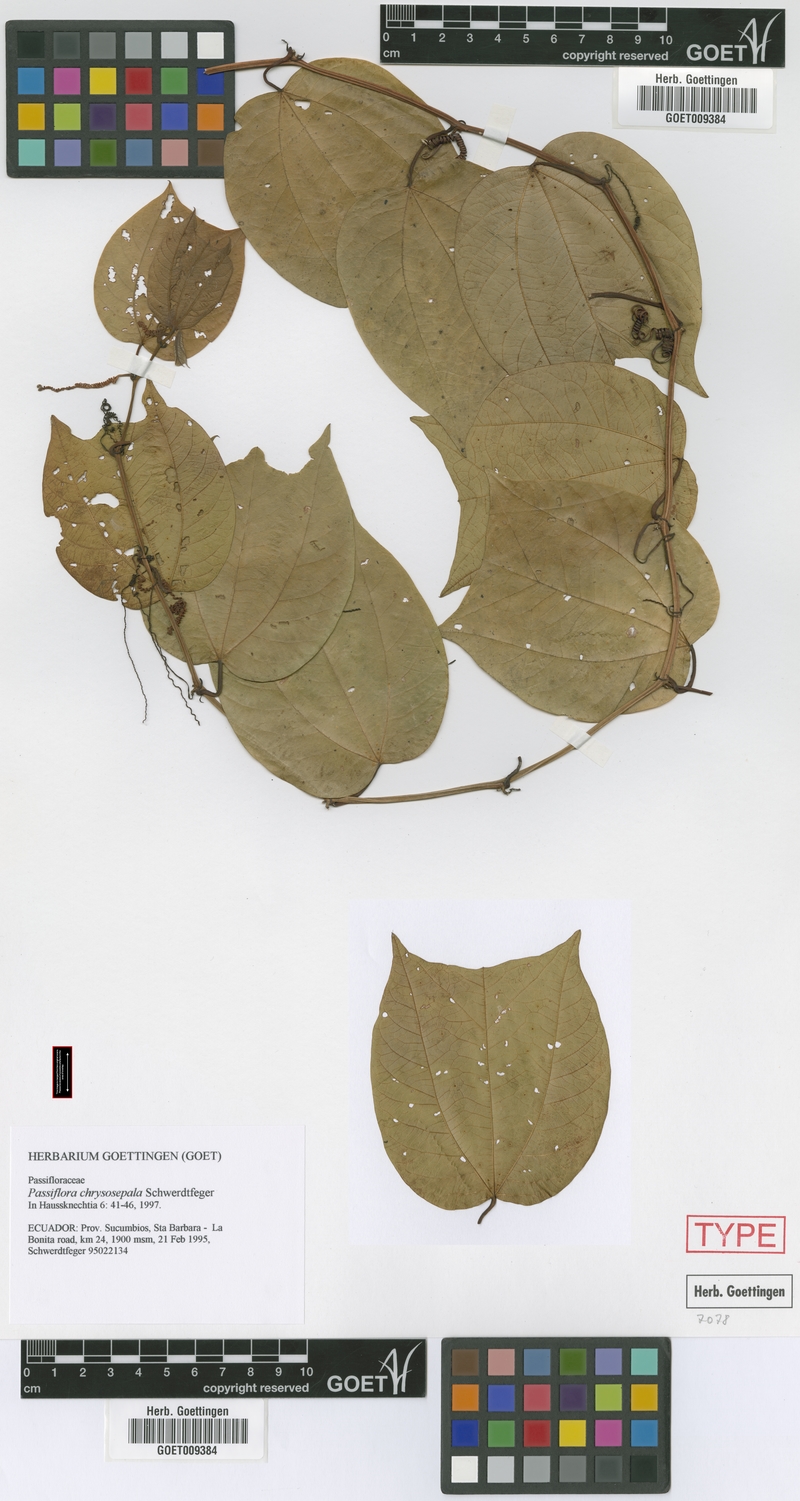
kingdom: Plantae
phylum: Tracheophyta
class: Magnoliopsida
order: Malpighiales
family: Passifloraceae
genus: Passiflora
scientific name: Passiflora chrysosepala
